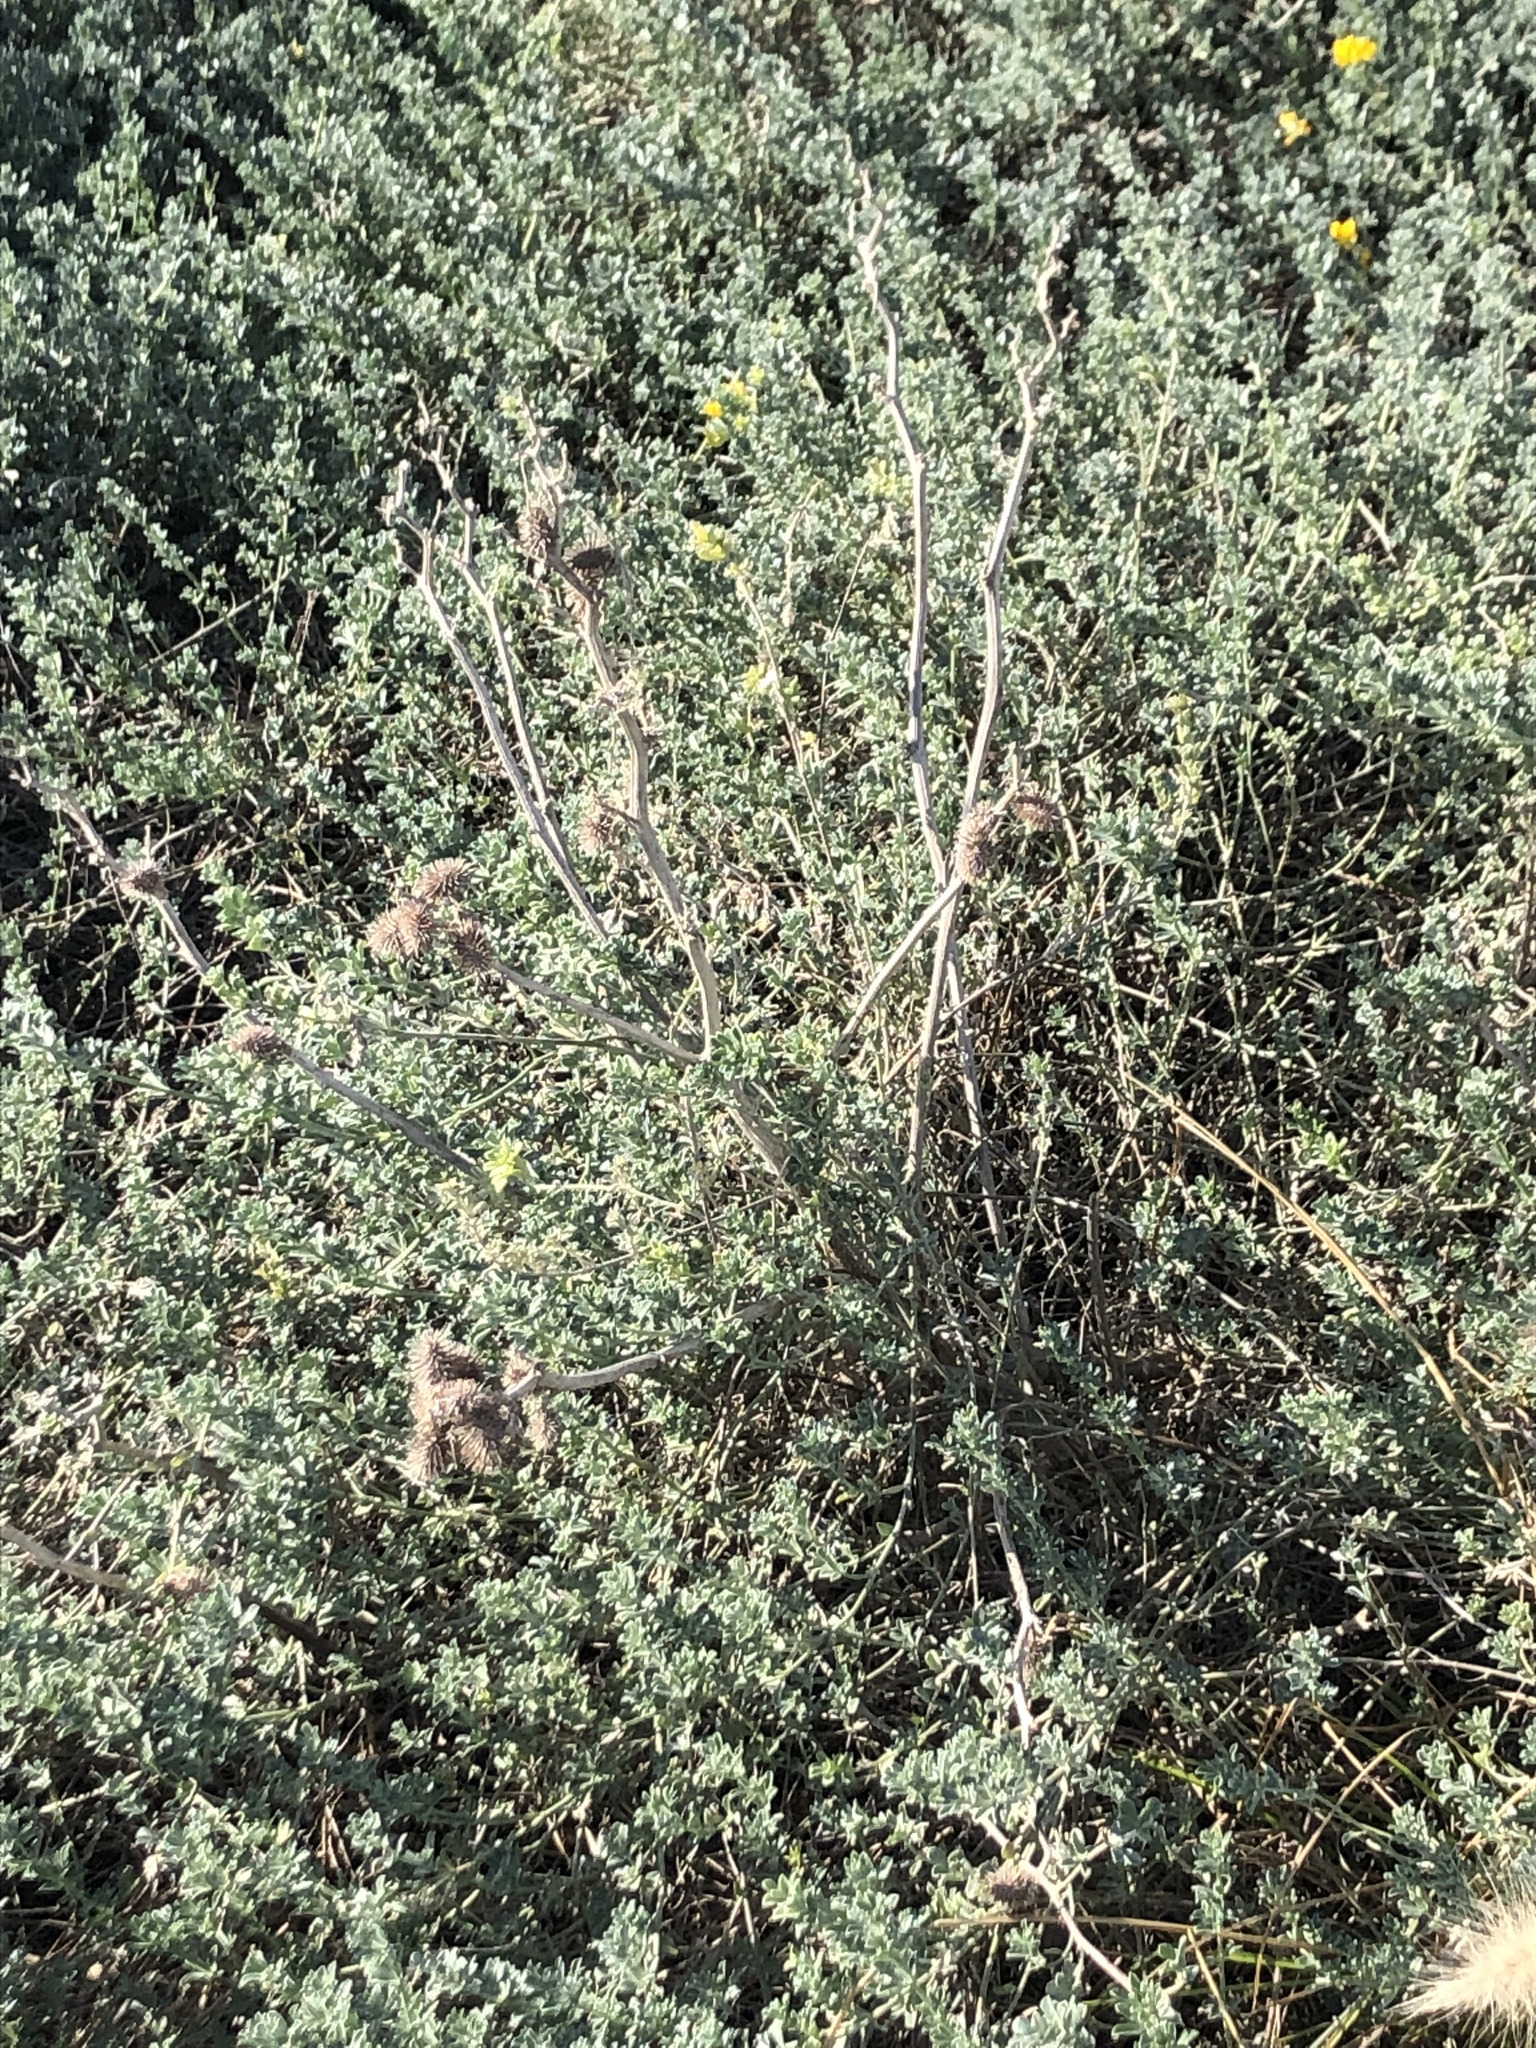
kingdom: Plantae
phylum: Tracheophyta
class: Magnoliopsida
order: Asterales
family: Asteraceae
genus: Xanthium
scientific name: Xanthium orientale
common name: Californian burr
